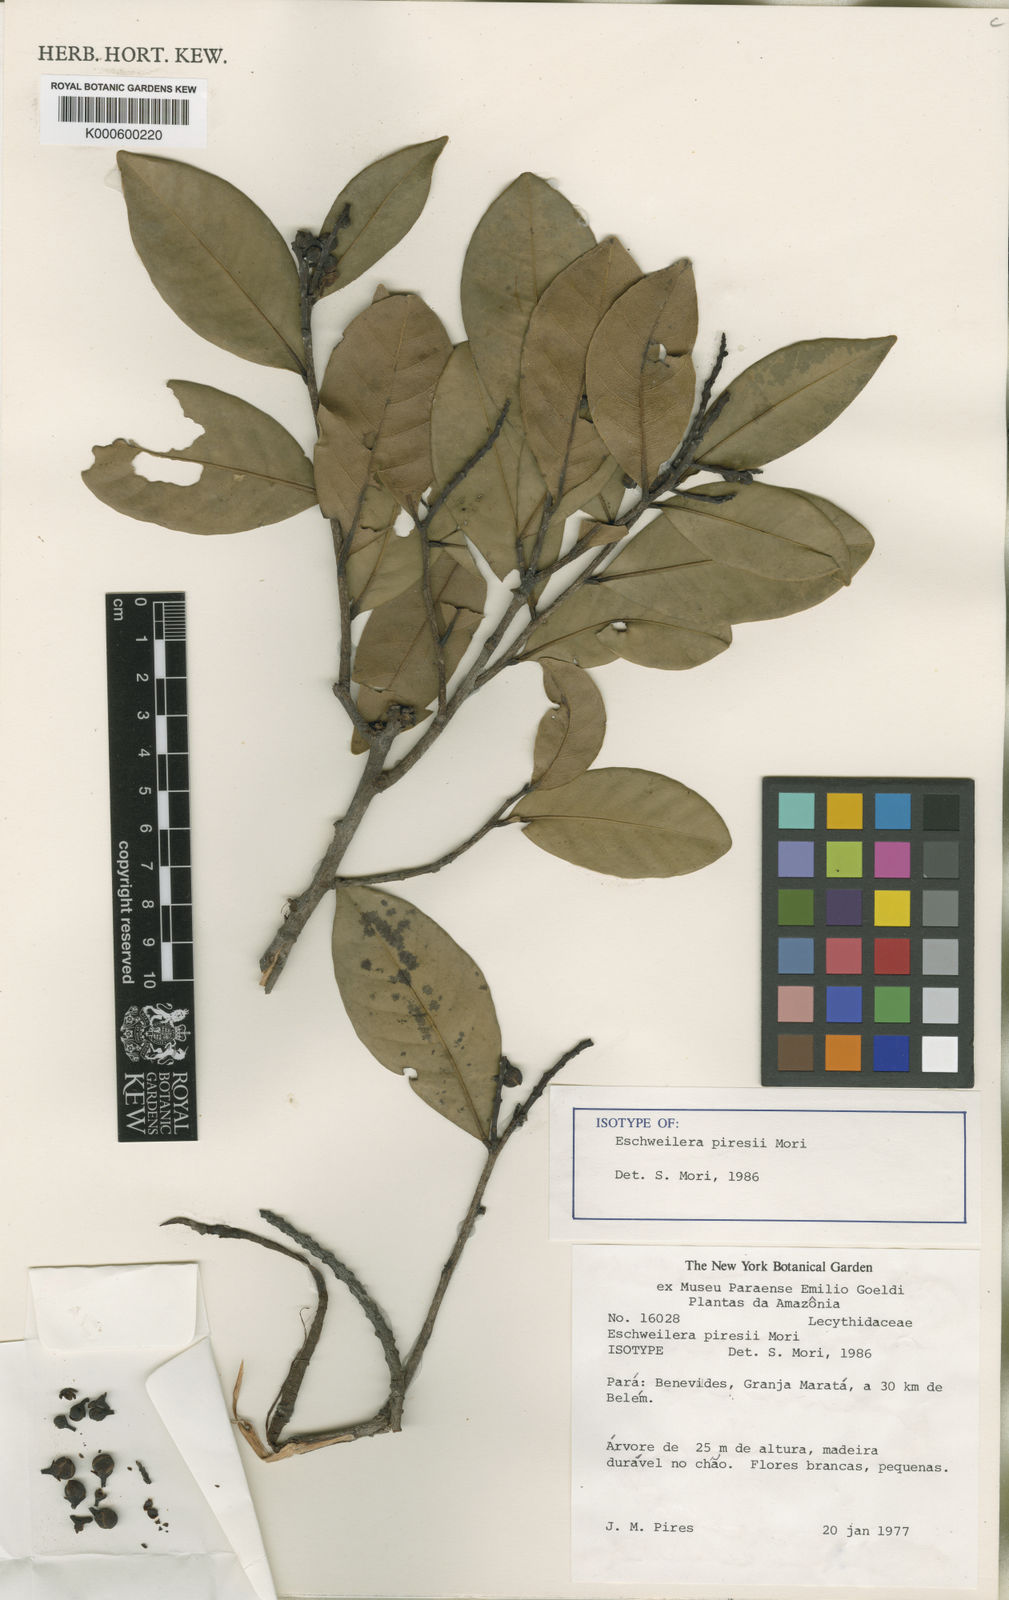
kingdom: Plantae
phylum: Tracheophyta
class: Magnoliopsida
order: Ericales
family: Lecythidaceae
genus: Eschweilera
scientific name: Eschweilera piresii
